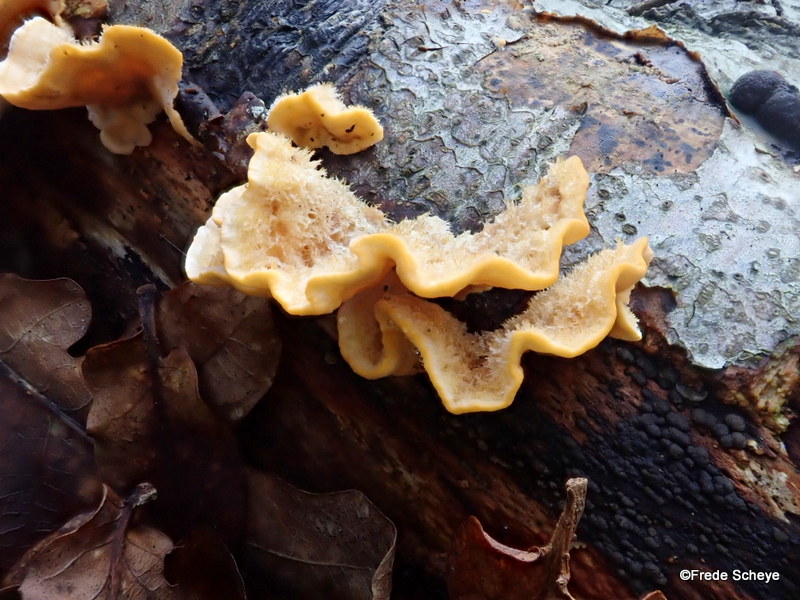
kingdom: Fungi
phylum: Basidiomycota
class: Agaricomycetes
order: Russulales
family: Stereaceae
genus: Stereum
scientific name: Stereum hirsutum
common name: håret lædersvamp
